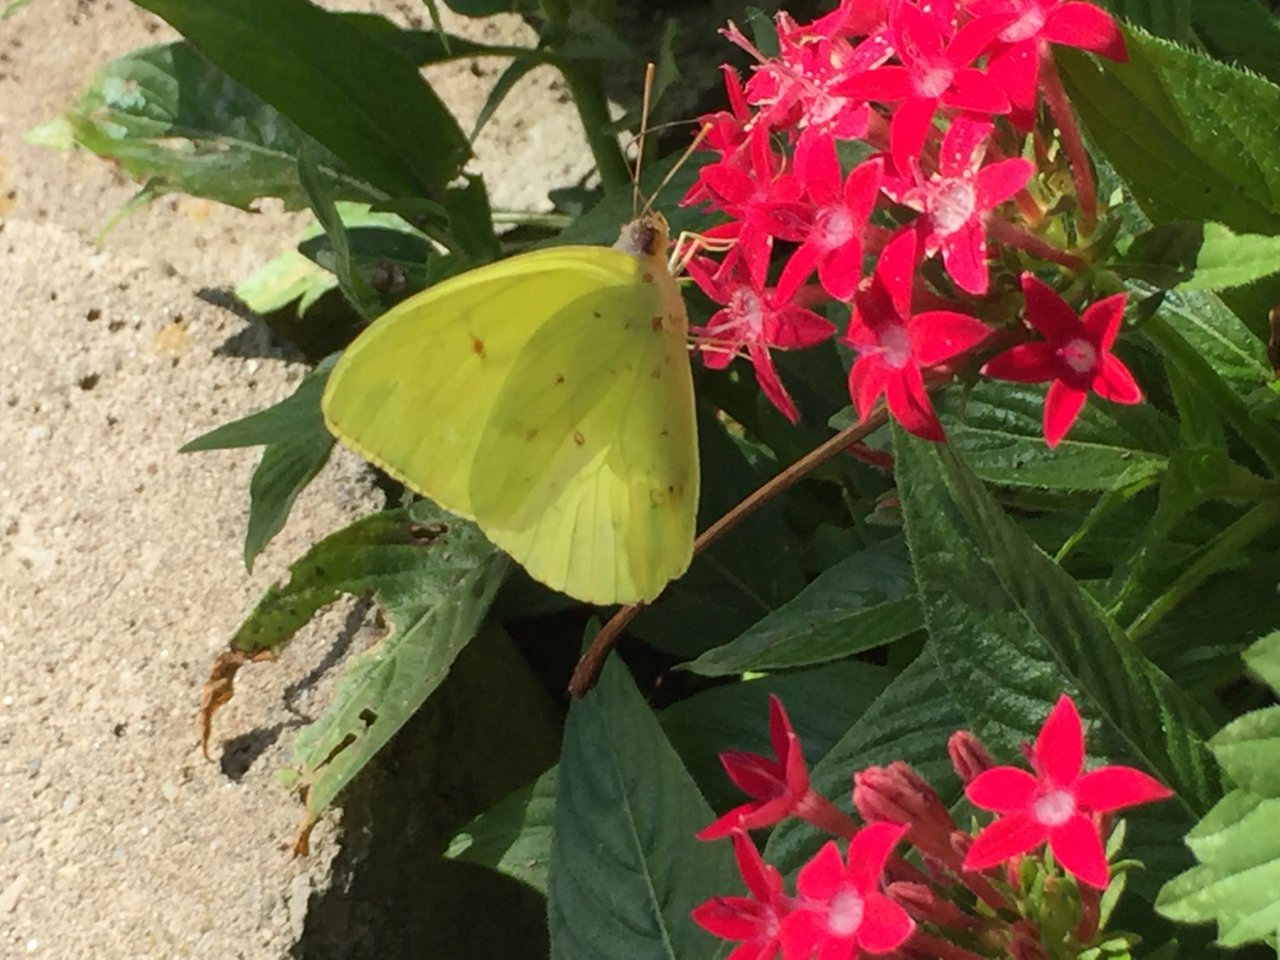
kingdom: Animalia
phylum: Arthropoda
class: Insecta
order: Lepidoptera
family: Pieridae
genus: Phoebis
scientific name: Phoebis sennae
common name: Cloudless Sulphur
